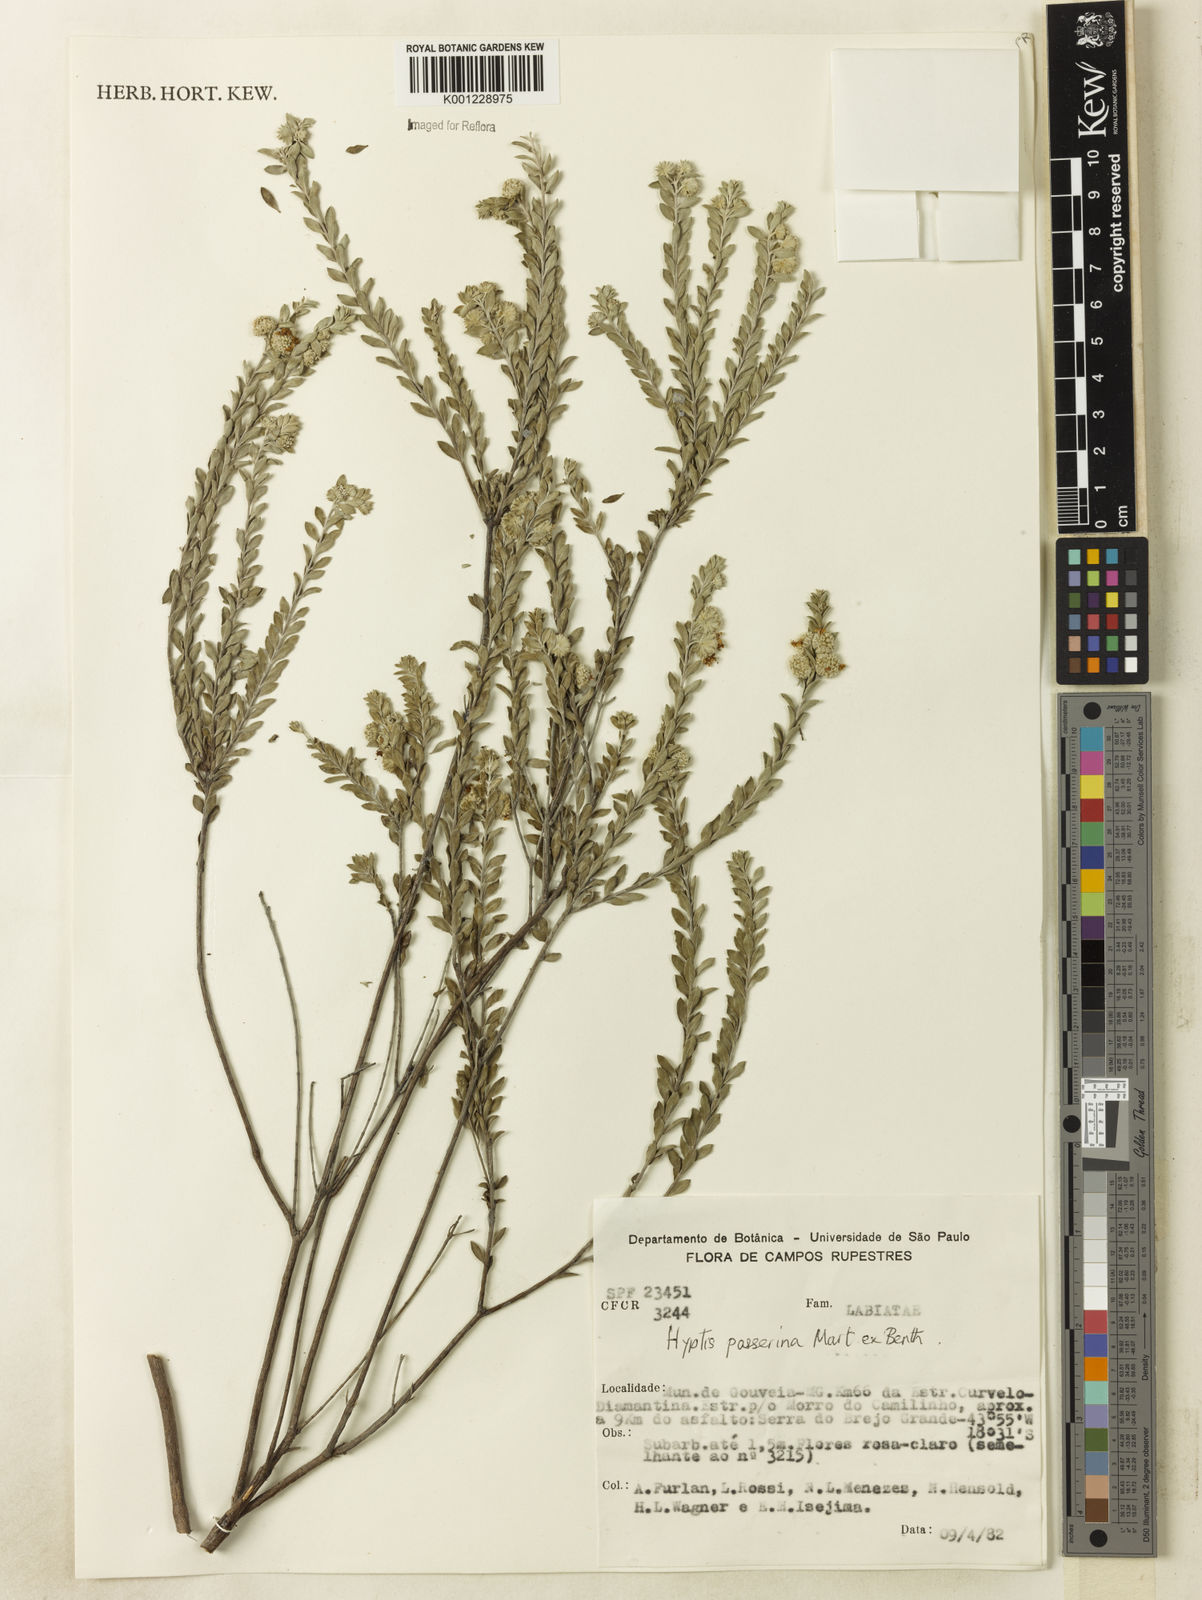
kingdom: Plantae
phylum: Tracheophyta
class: Magnoliopsida
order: Lamiales
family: Lamiaceae
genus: Hyptis
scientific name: Hyptis passerina
